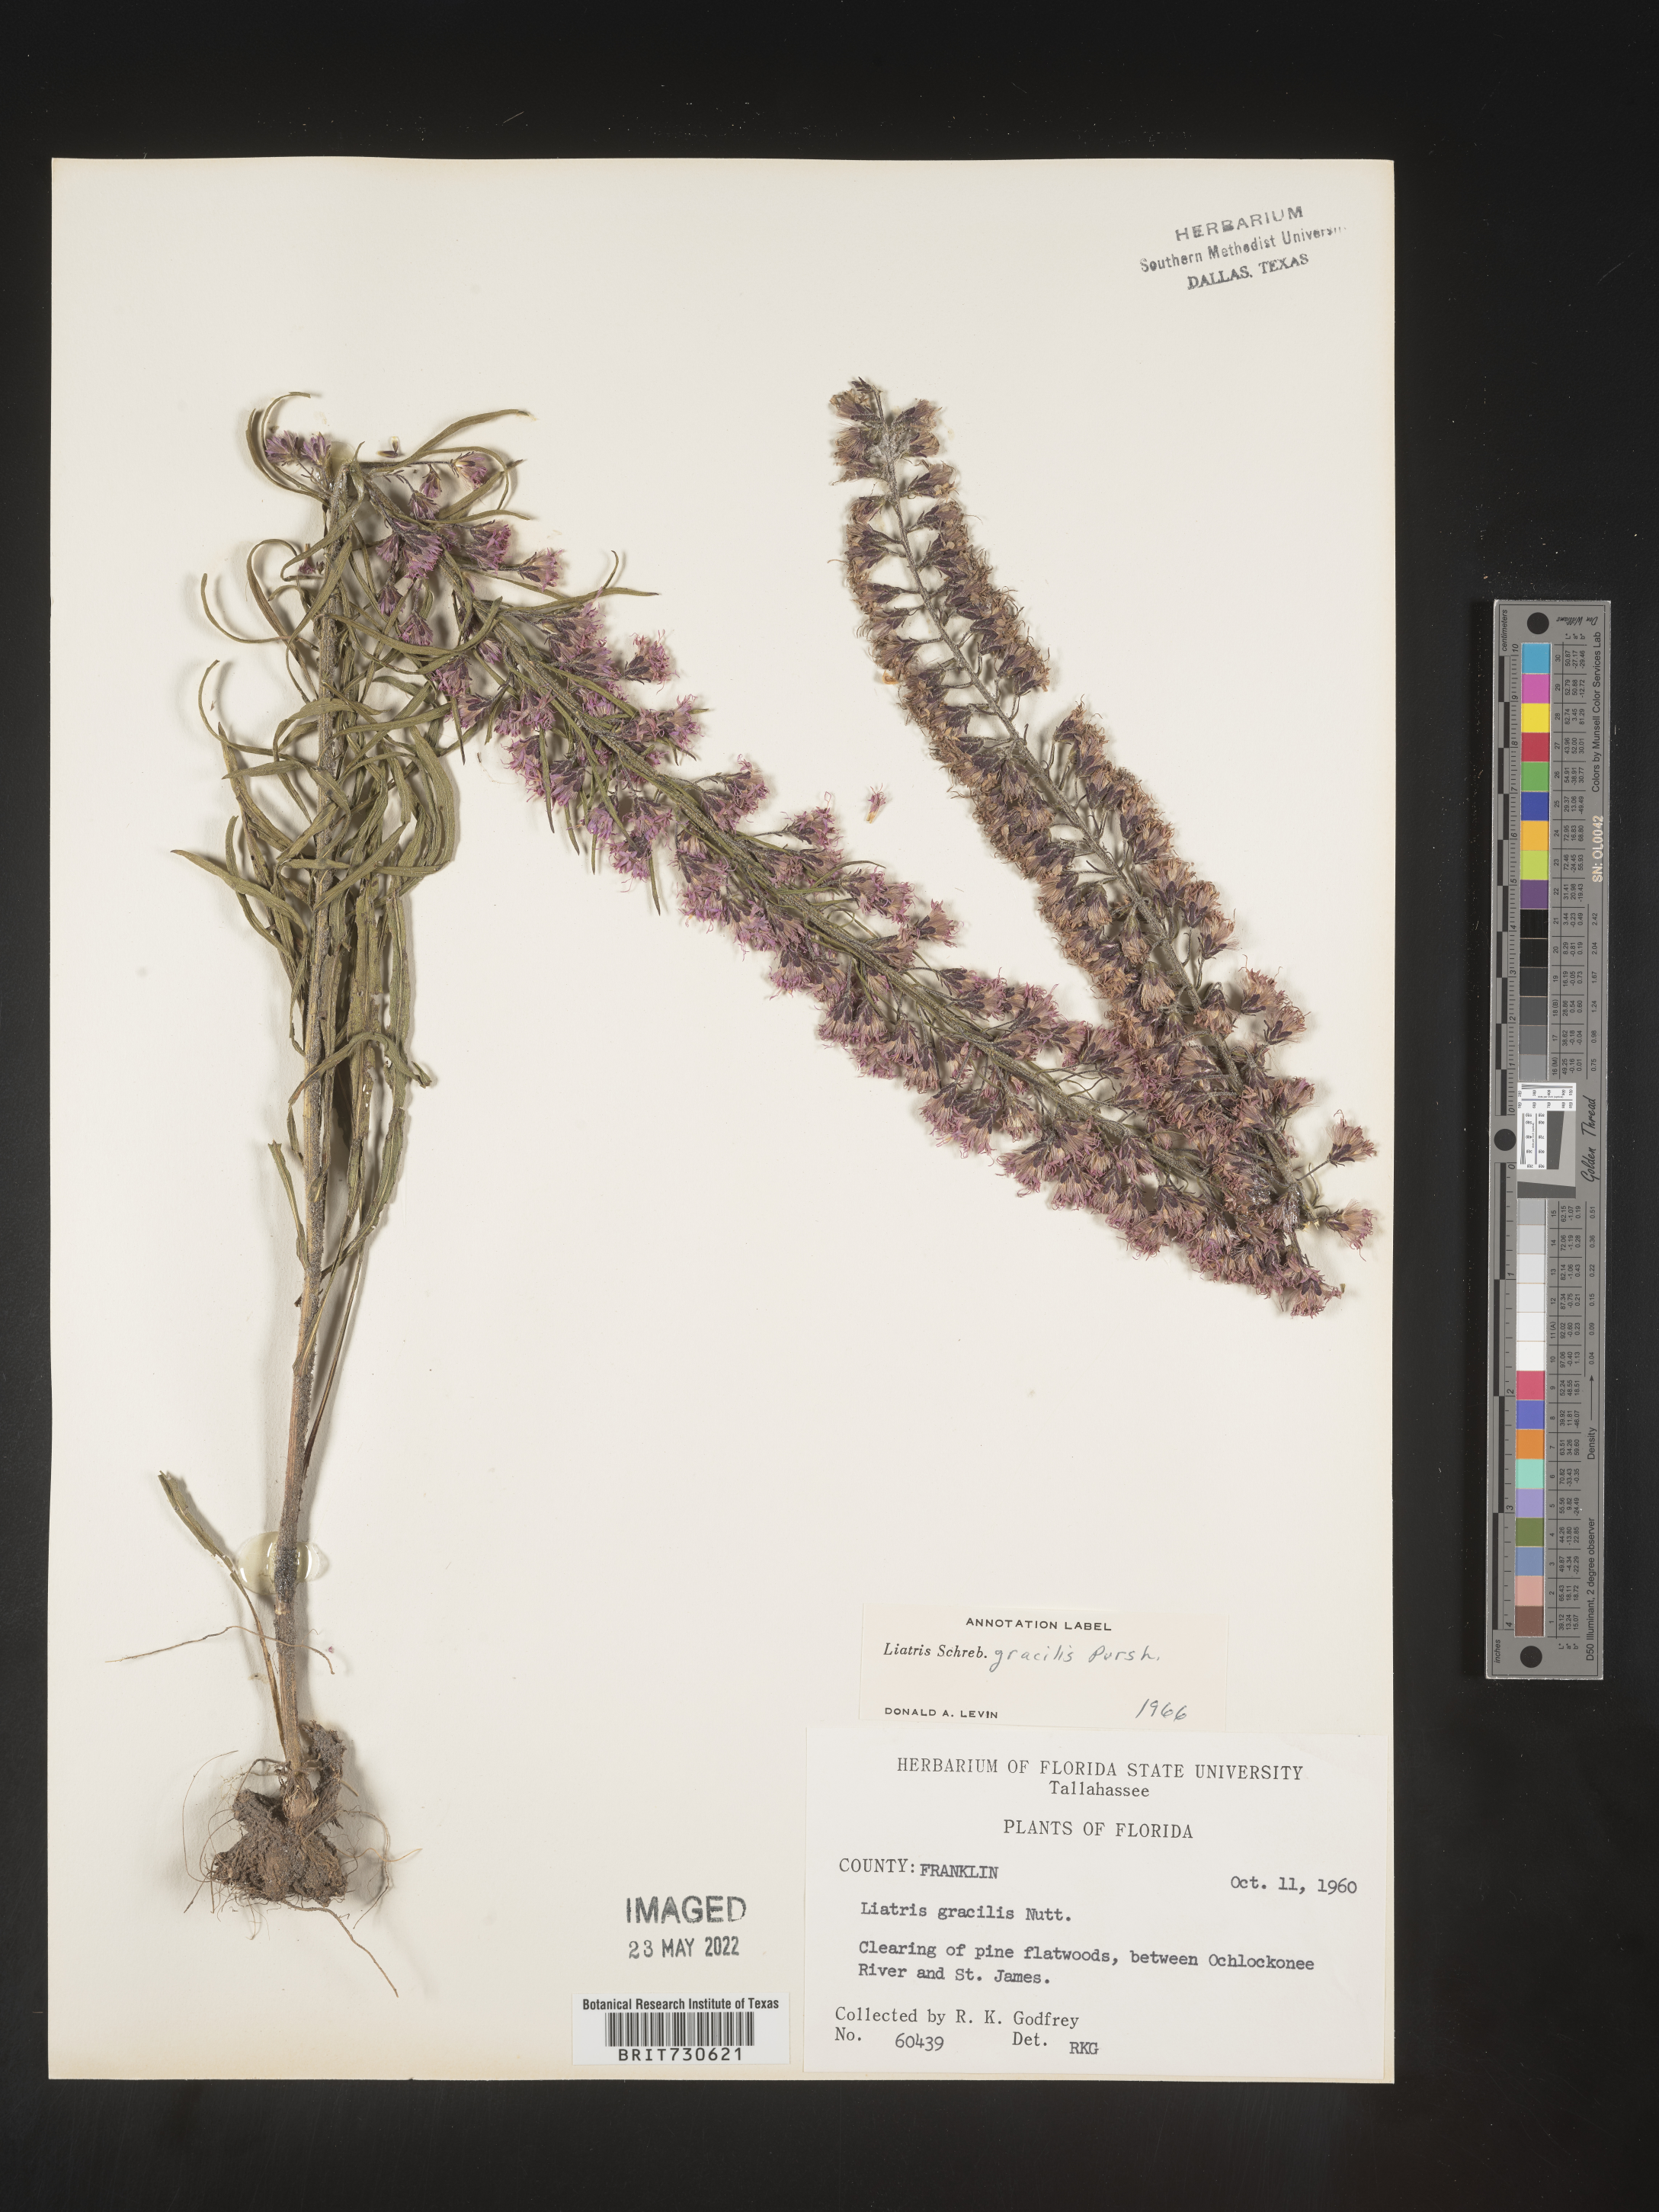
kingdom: Plantae
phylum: Tracheophyta
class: Magnoliopsida
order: Asterales
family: Asteraceae
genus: Liatris
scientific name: Liatris gracilis
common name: Slender gayfeather
